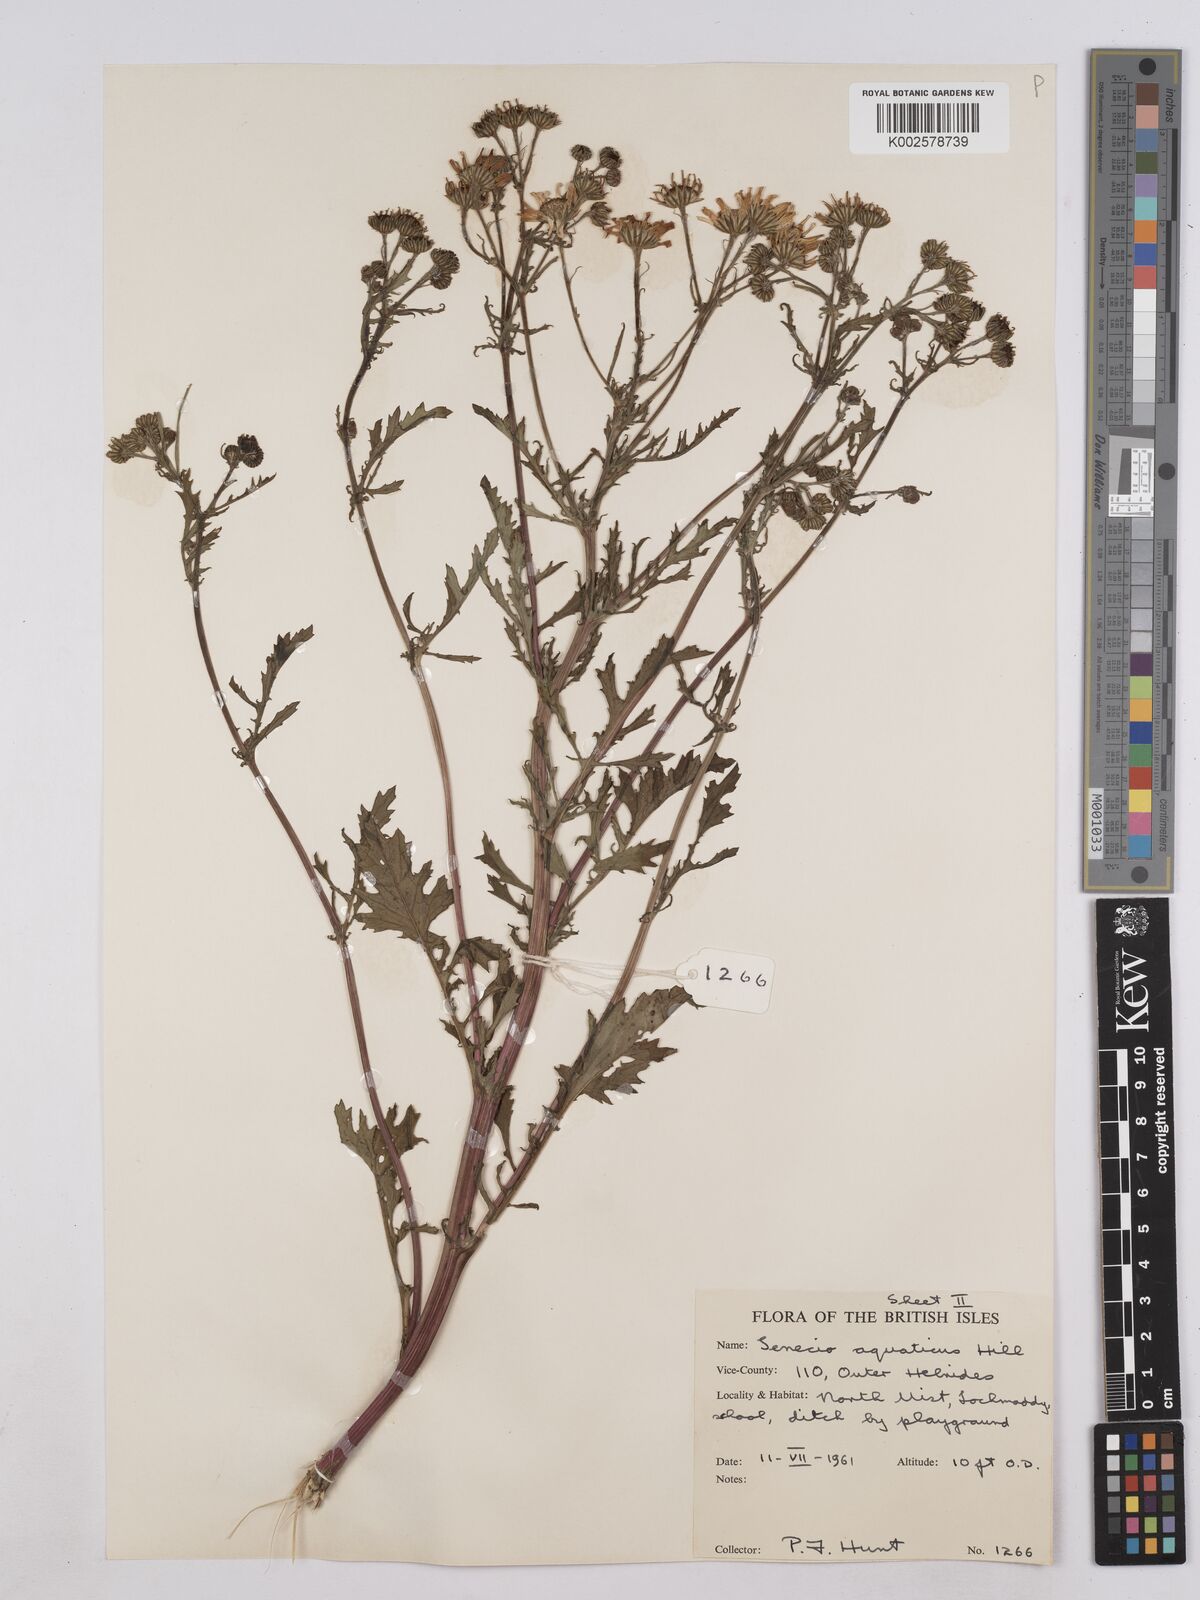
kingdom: Plantae
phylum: Tracheophyta
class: Magnoliopsida
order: Asterales
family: Asteraceae
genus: Jacobaea
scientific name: Jacobaea aquatica
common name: Water ragwort
